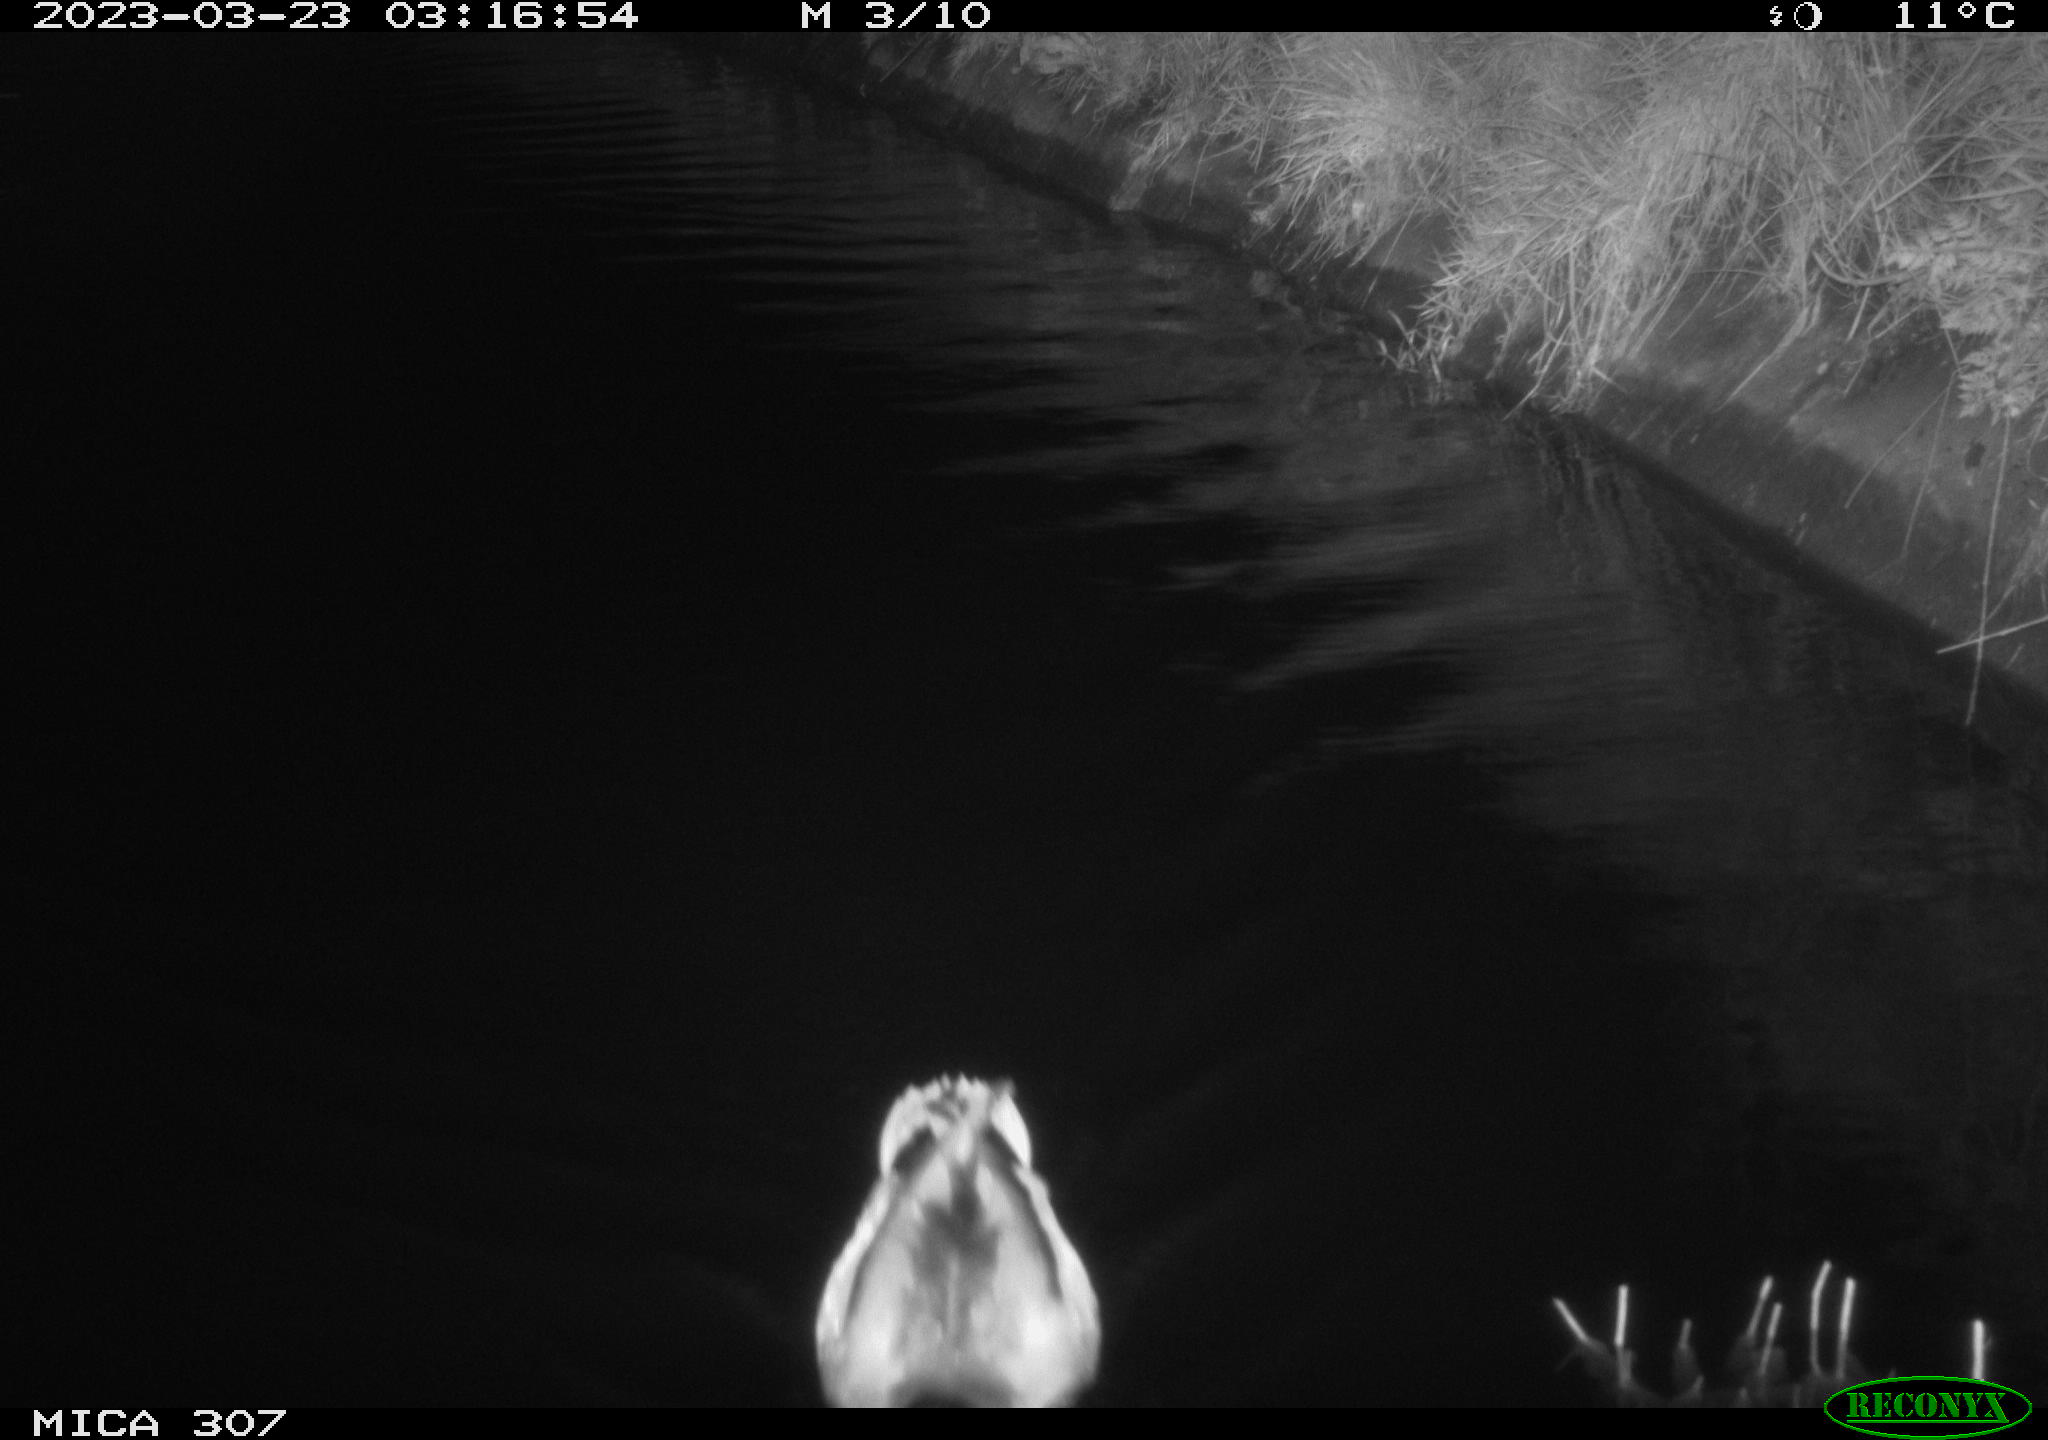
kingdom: Animalia
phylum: Chordata
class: Aves
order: Anseriformes
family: Anatidae
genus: Anas
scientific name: Anas
